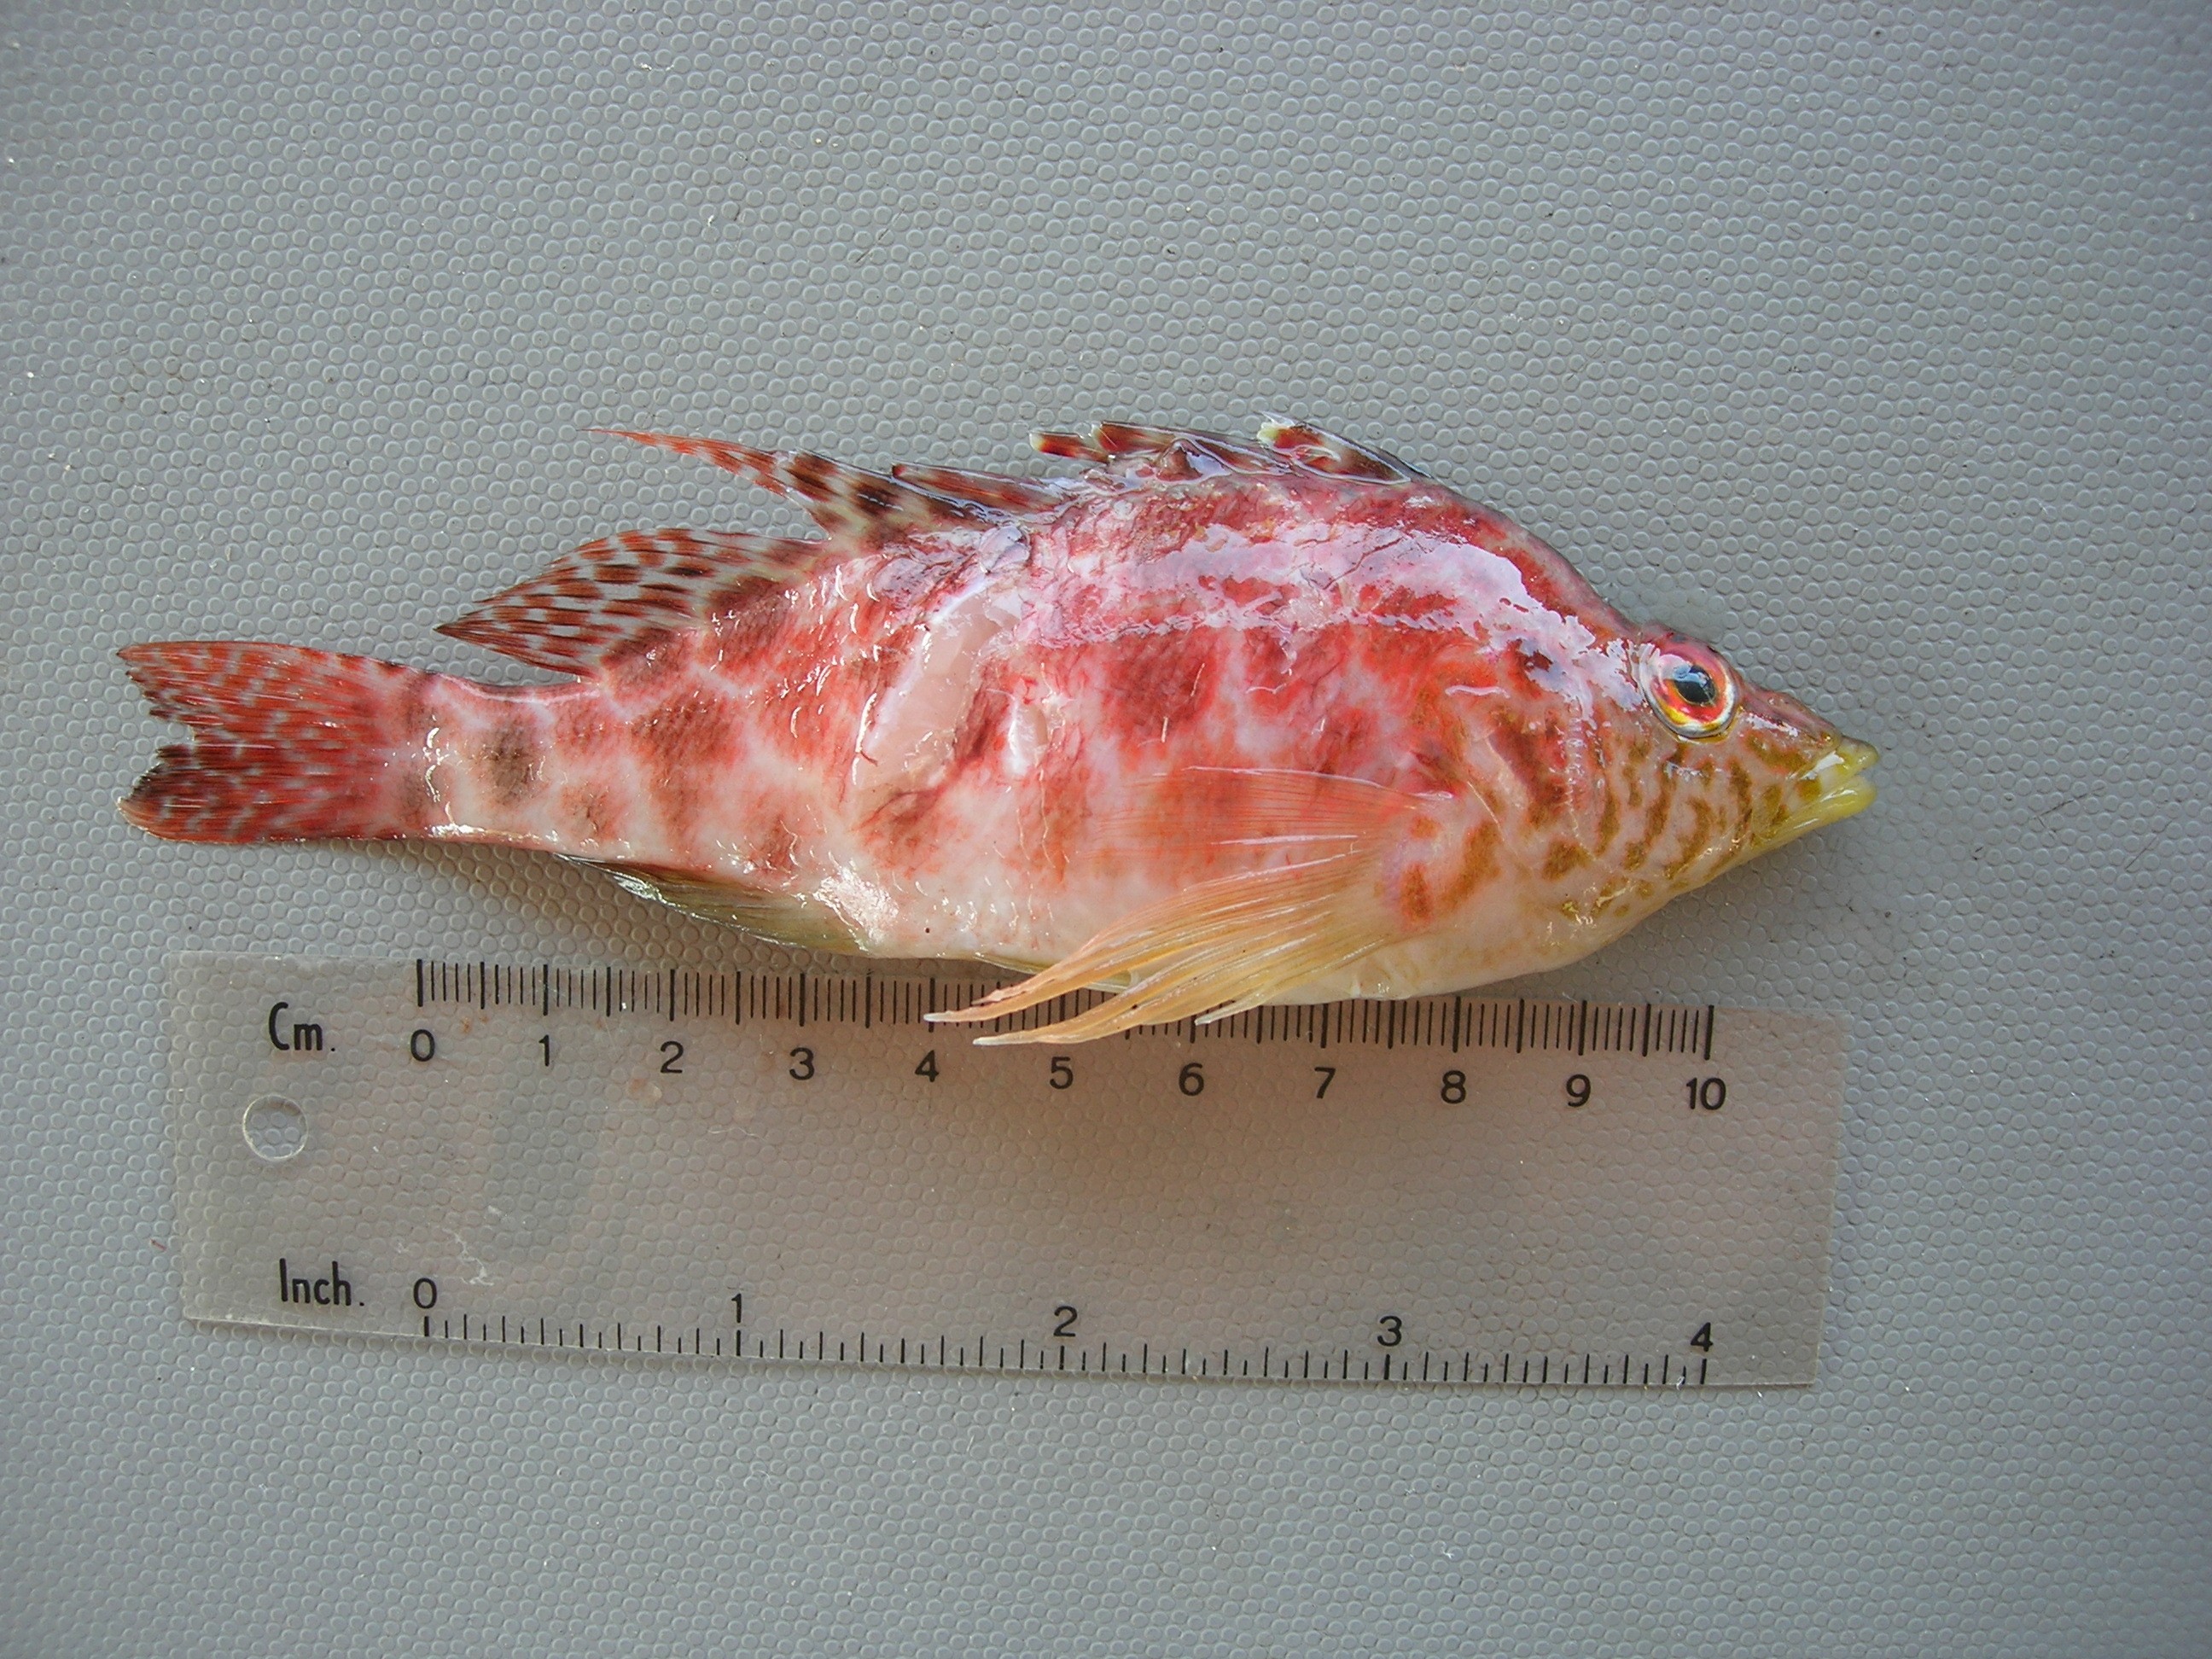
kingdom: Animalia
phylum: Chordata
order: Perciformes
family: Cirrhitidae
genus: Cirrhitichthys
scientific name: Cirrhitichthys guichenoti
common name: Cave hawkfish
